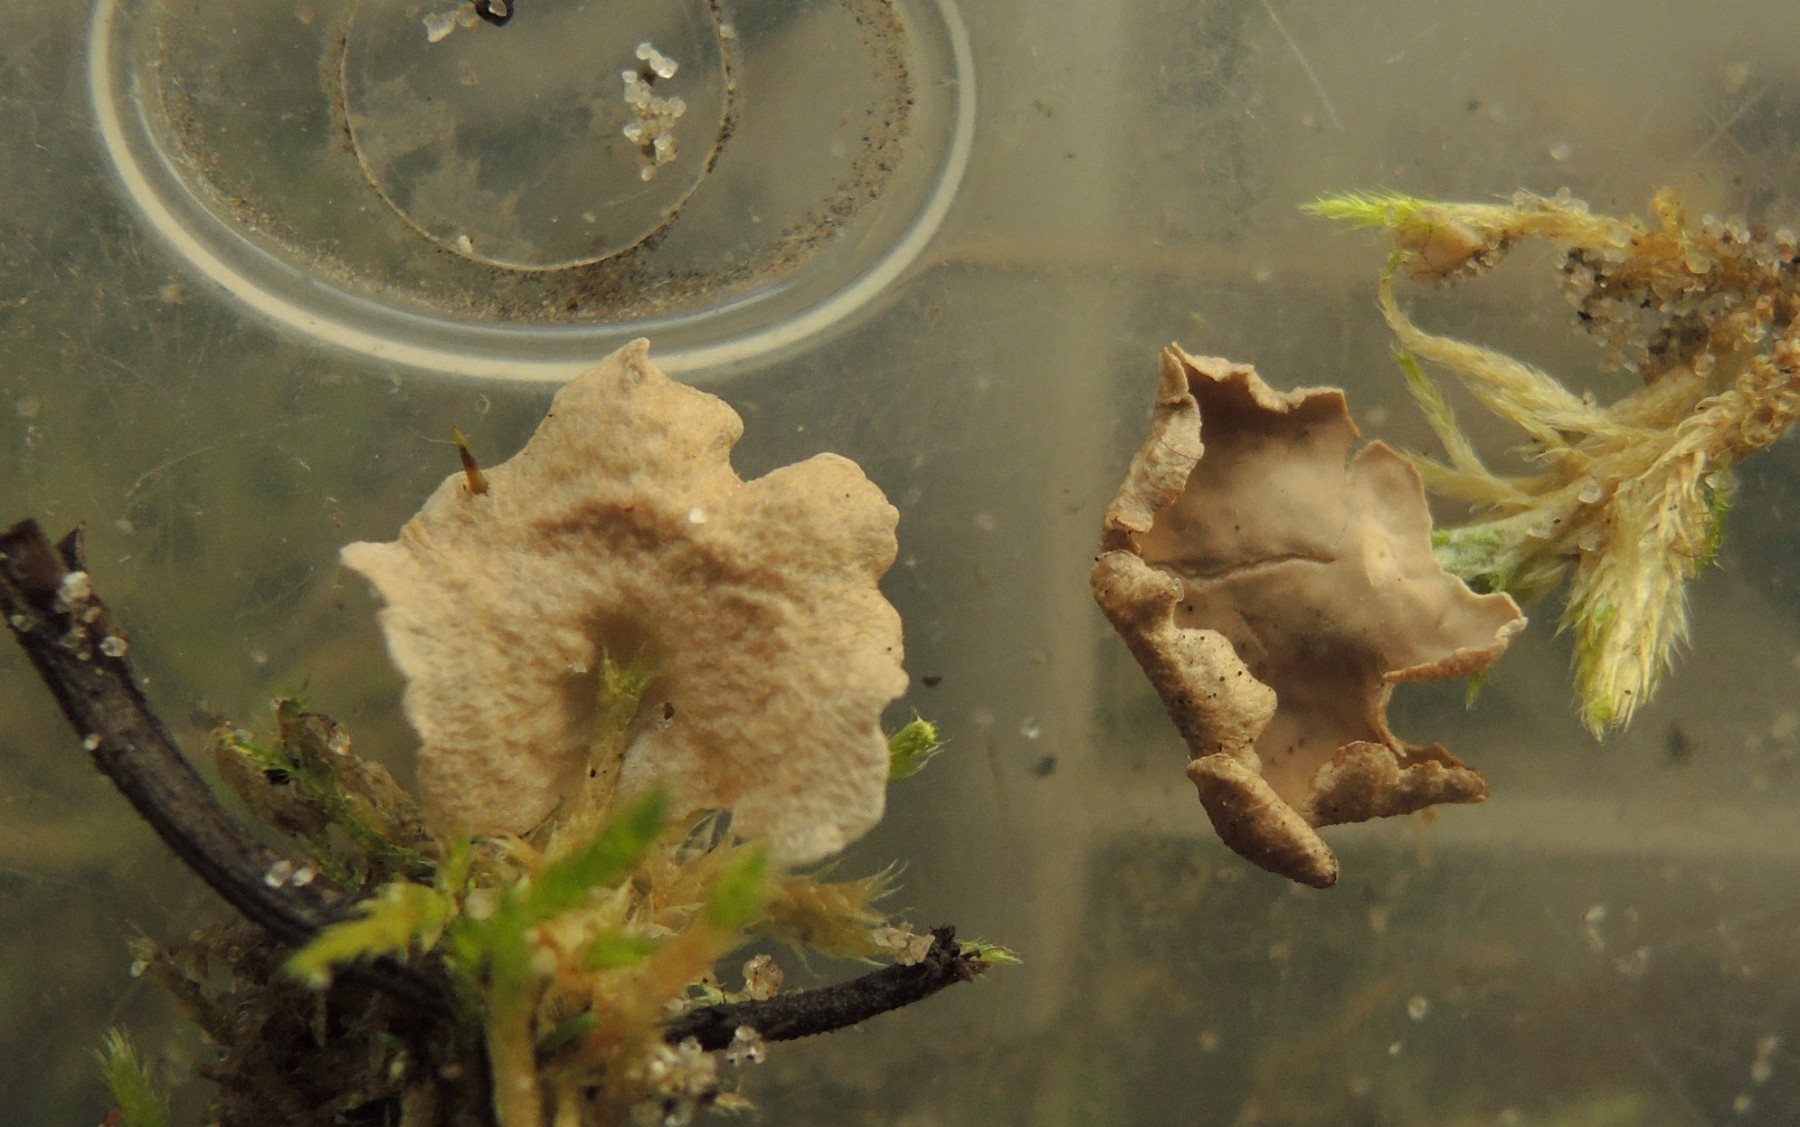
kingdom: Fungi
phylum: Basidiomycota
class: Agaricomycetes
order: Agaricales
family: Hygrophoraceae
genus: Arrhenia
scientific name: Arrhenia retiruga
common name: lille fontænehat
